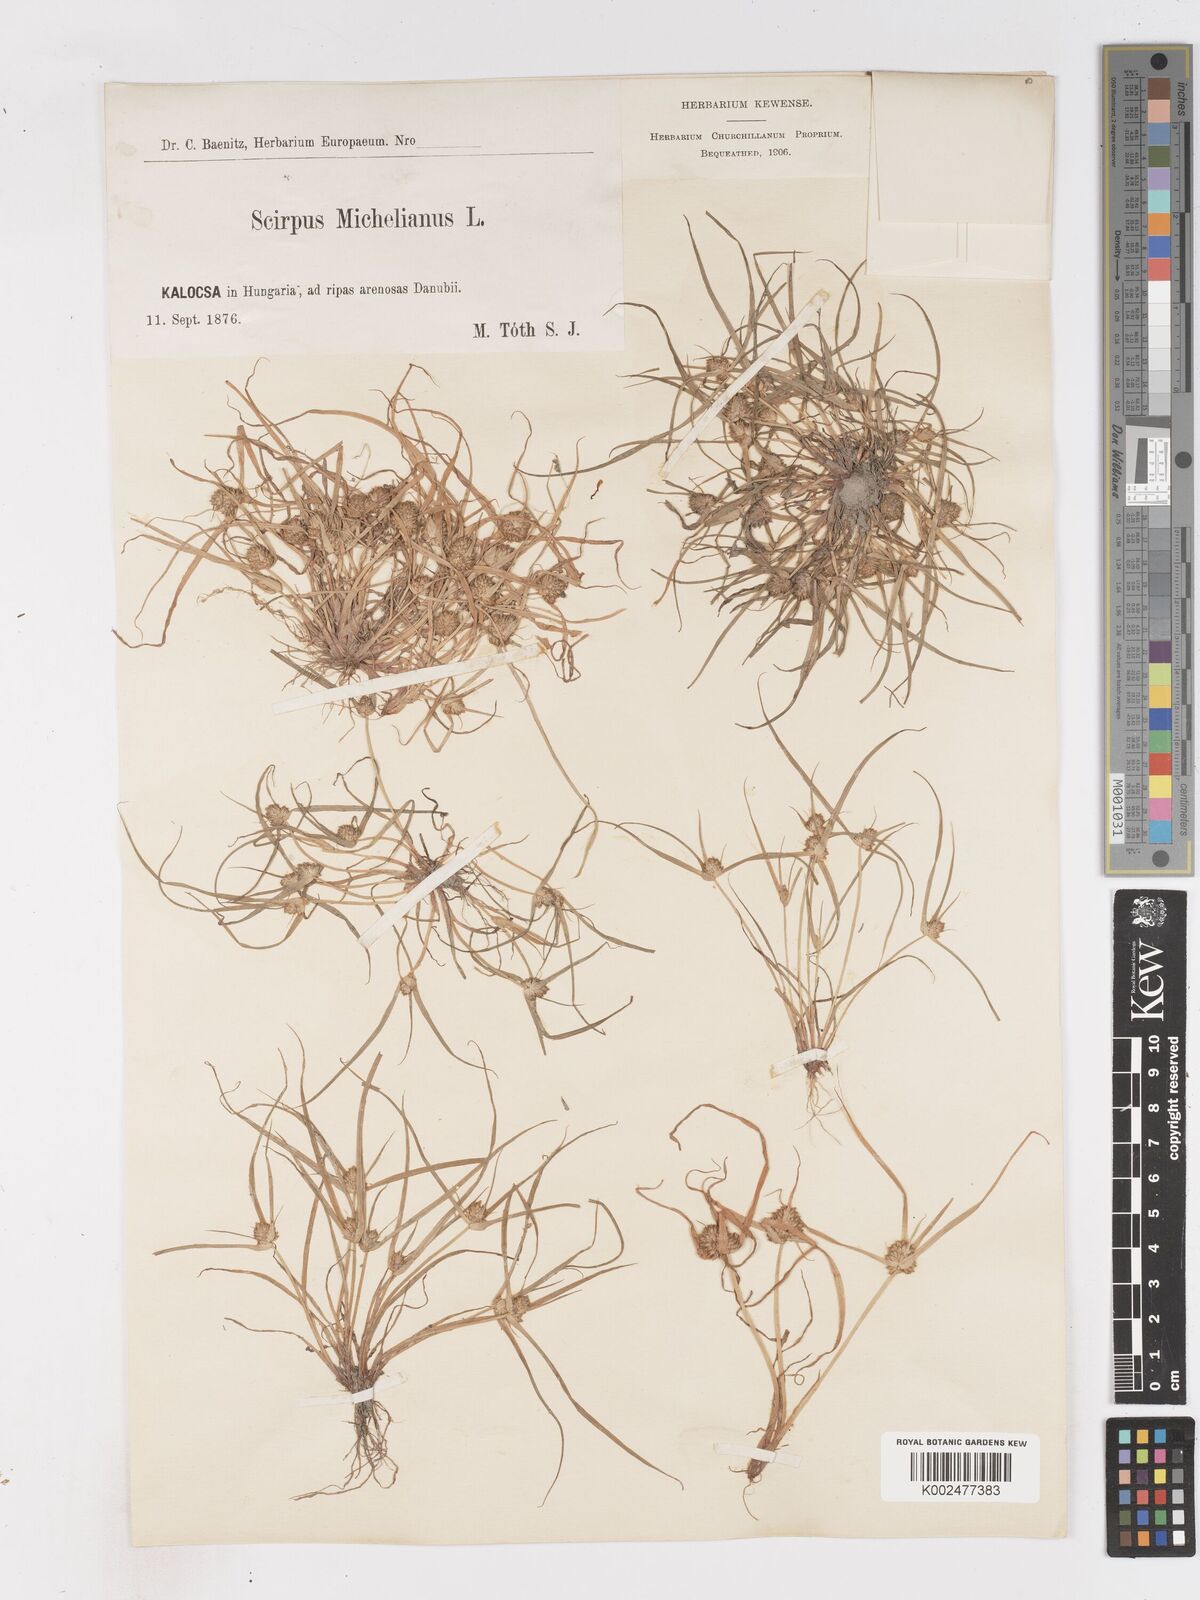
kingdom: Plantae
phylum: Tracheophyta
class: Liliopsida
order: Poales
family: Cyperaceae
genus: Cyperus
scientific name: Cyperus michelianus
